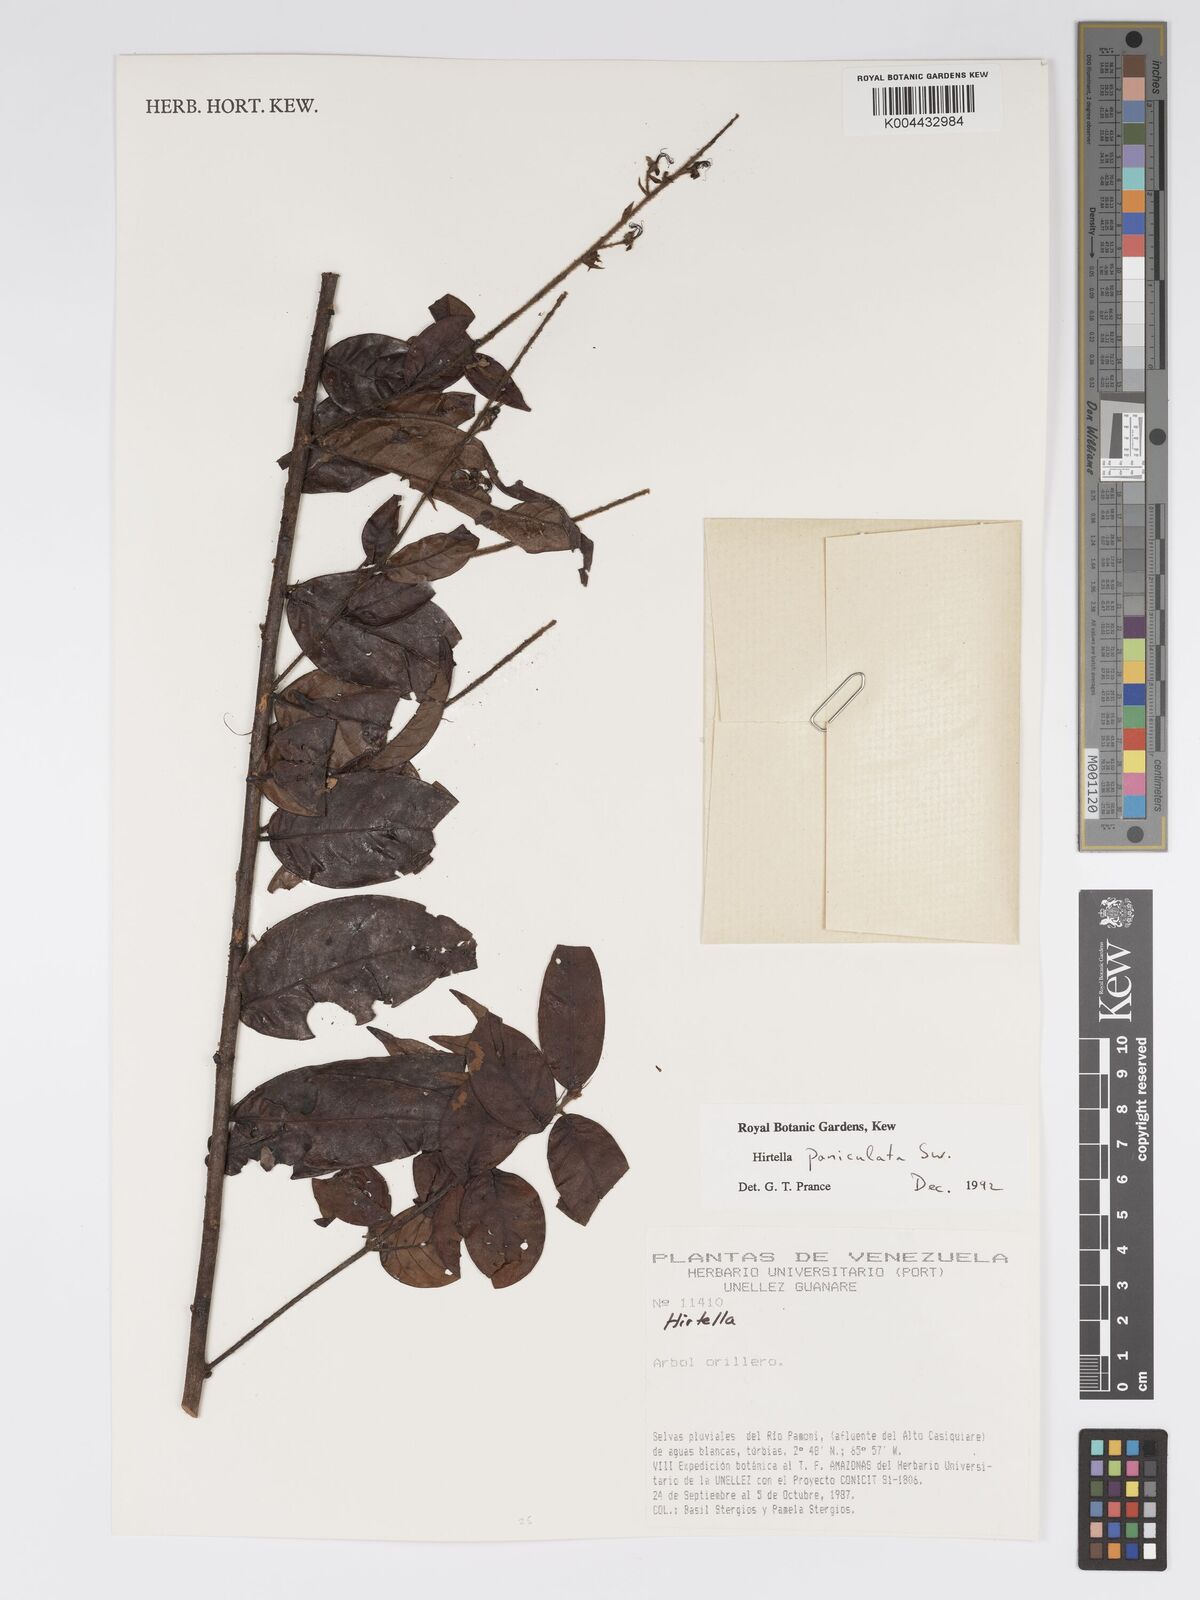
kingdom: Plantae
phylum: Tracheophyta
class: Magnoliopsida
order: Malpighiales
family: Chrysobalanaceae
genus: Hirtella
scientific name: Hirtella
